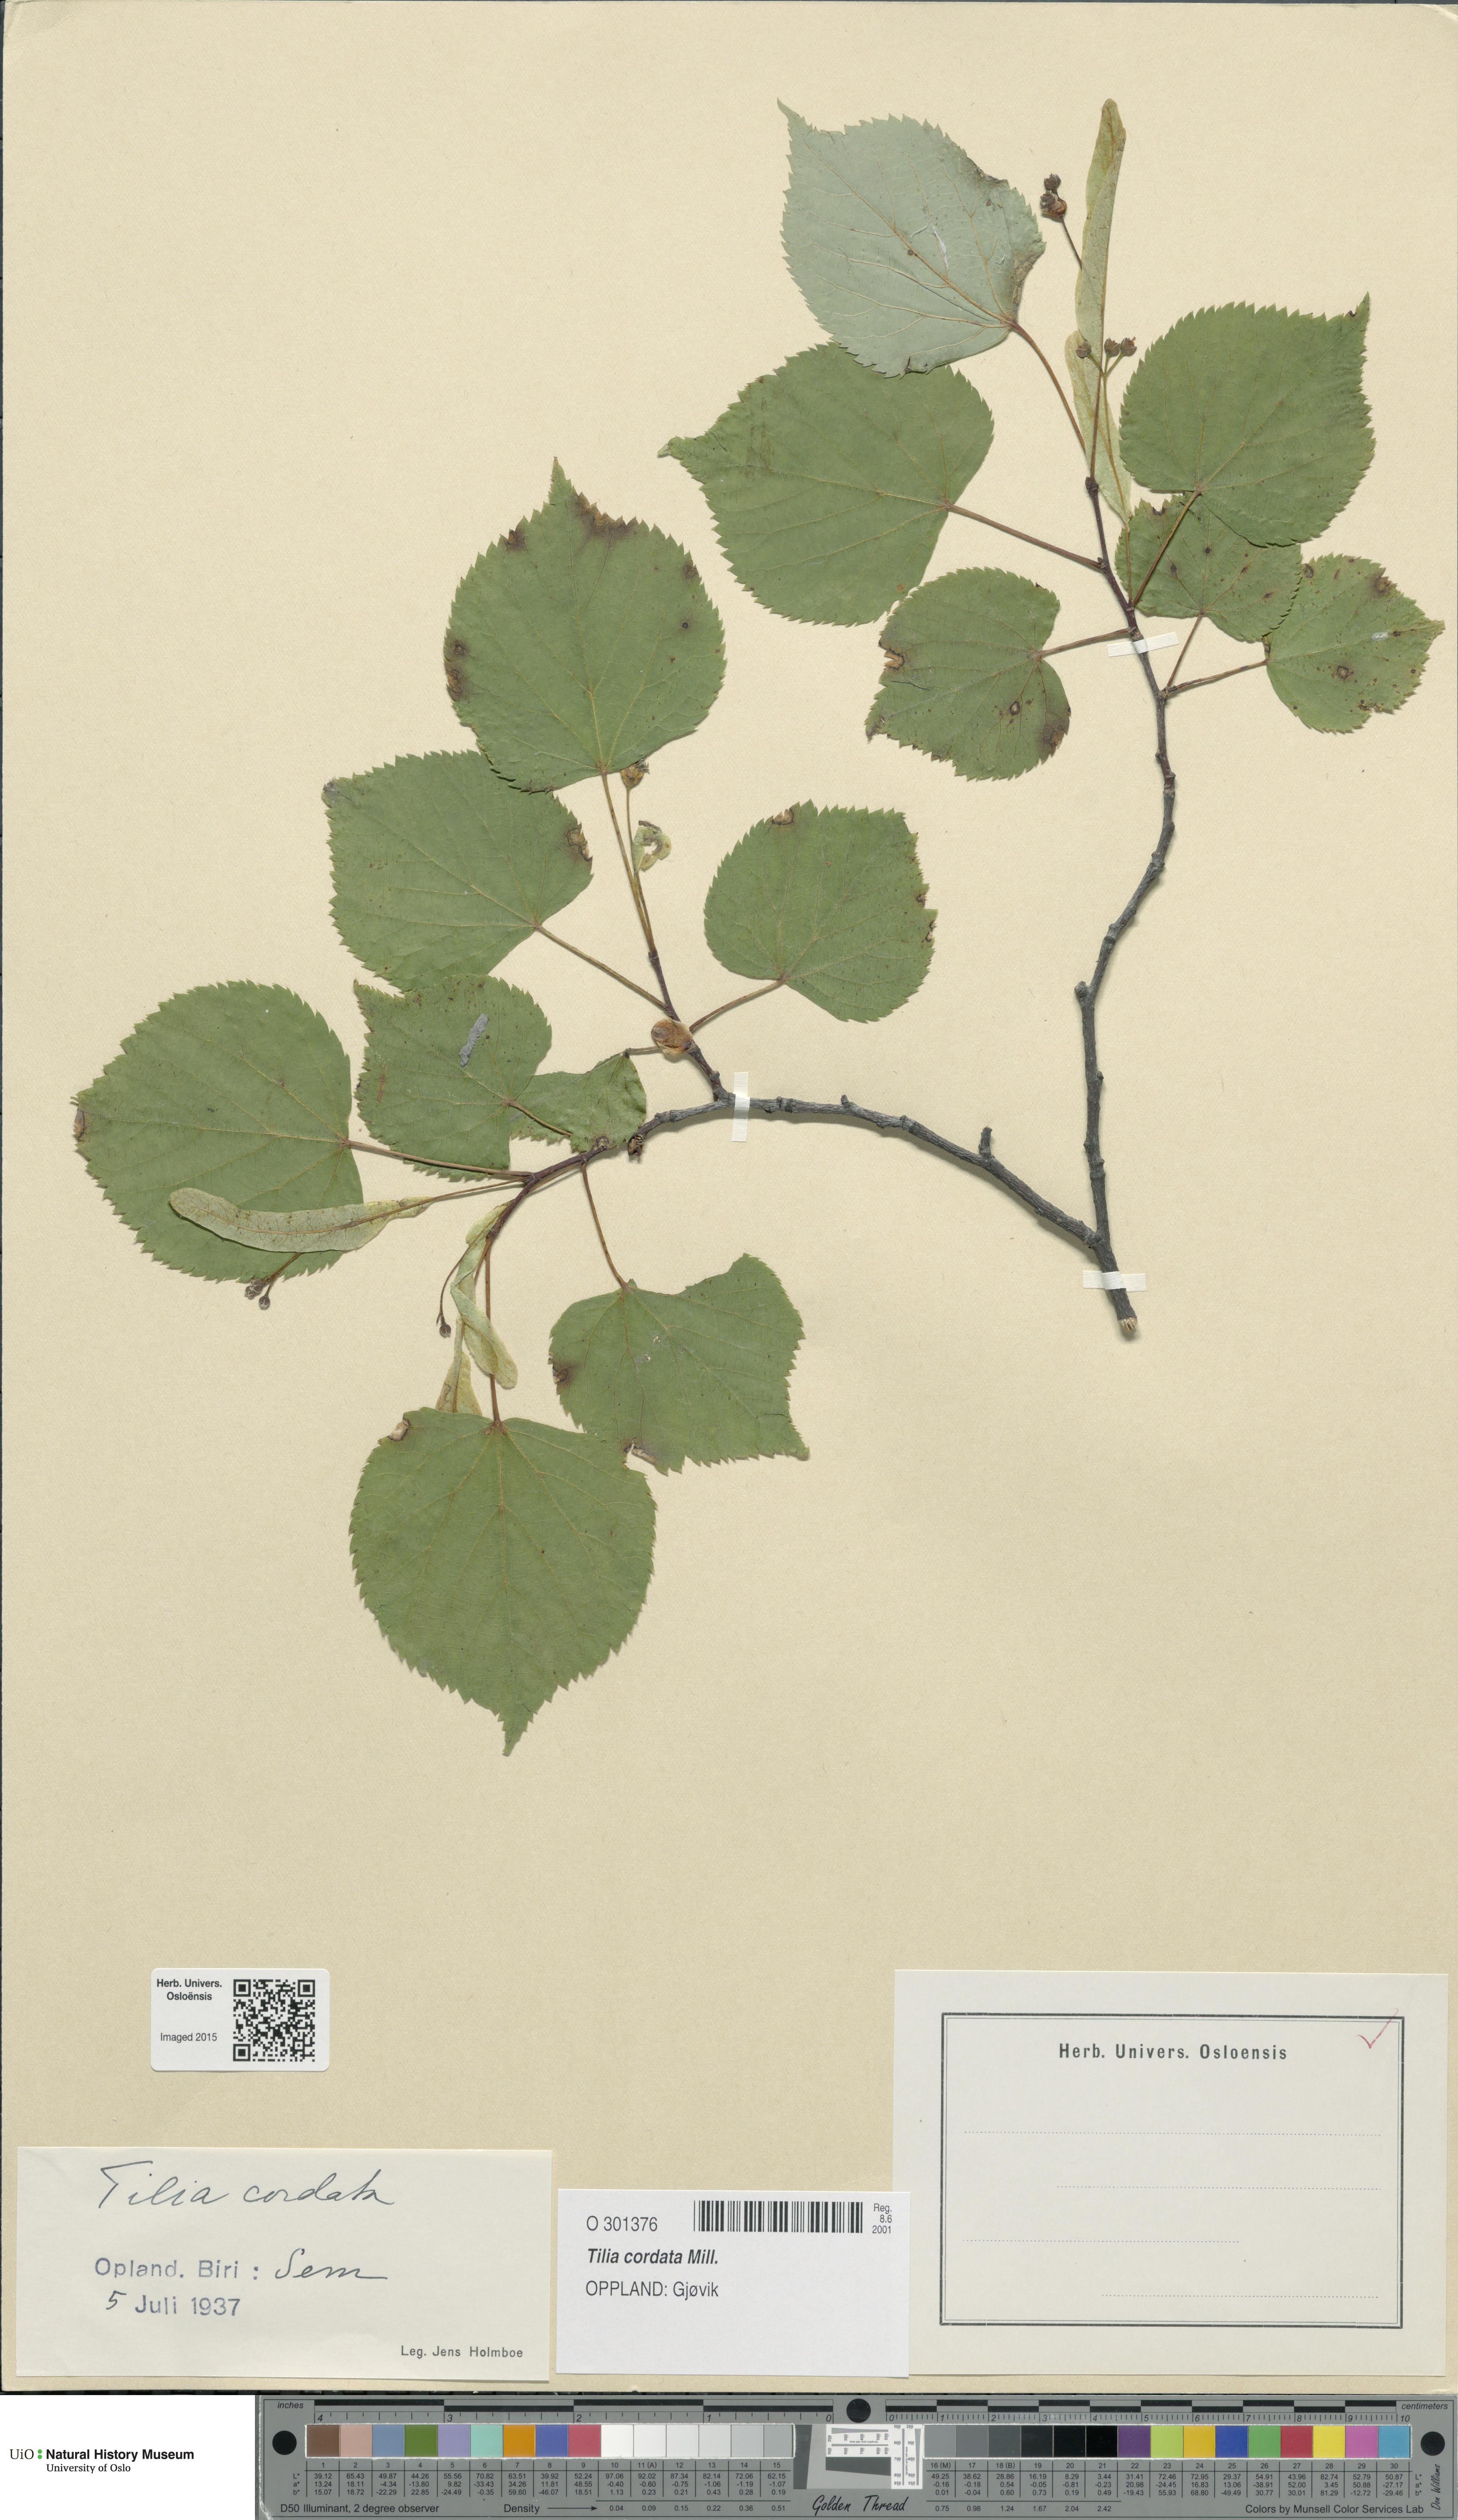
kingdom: Plantae
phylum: Tracheophyta
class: Magnoliopsida
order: Malvales
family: Malvaceae
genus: Tilia
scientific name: Tilia cordata
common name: Small-leaved lime
